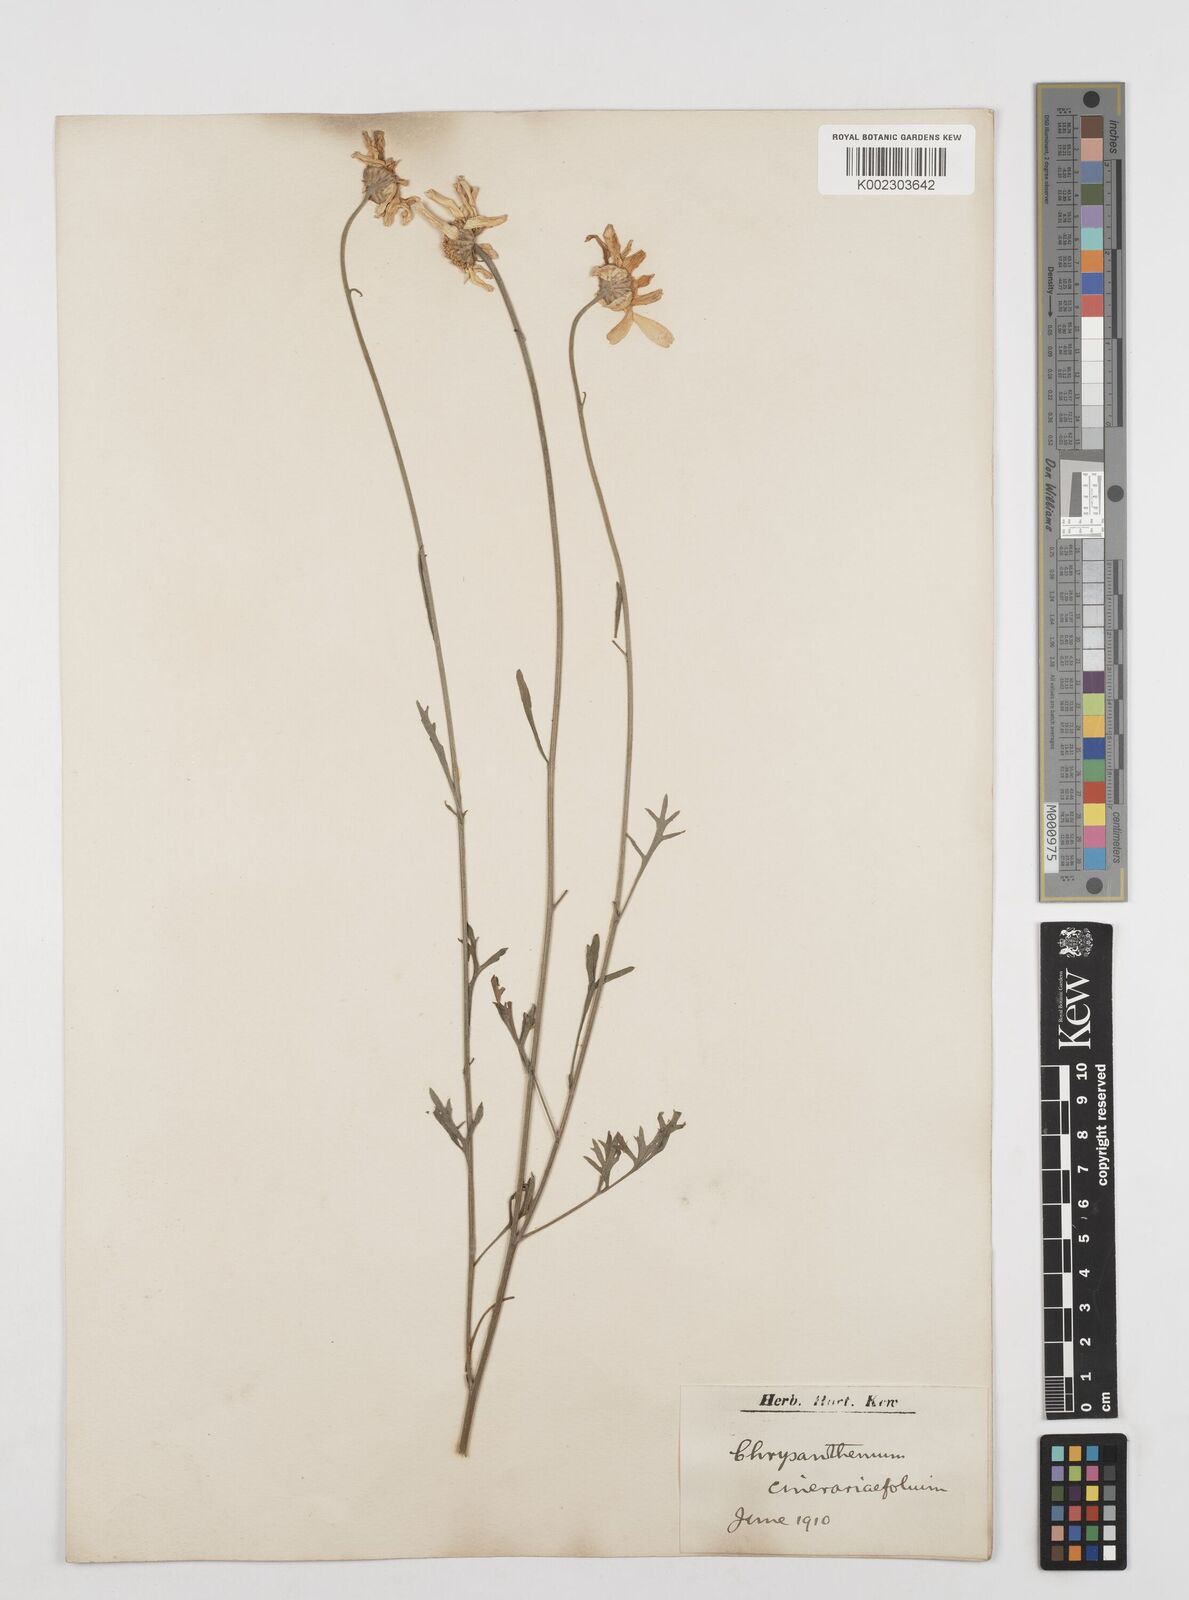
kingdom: Plantae
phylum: Tracheophyta
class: Magnoliopsida
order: Asterales
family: Asteraceae
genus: Tanacetum
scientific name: Tanacetum cinerariifolium
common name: Dalmatian pyrethrum
